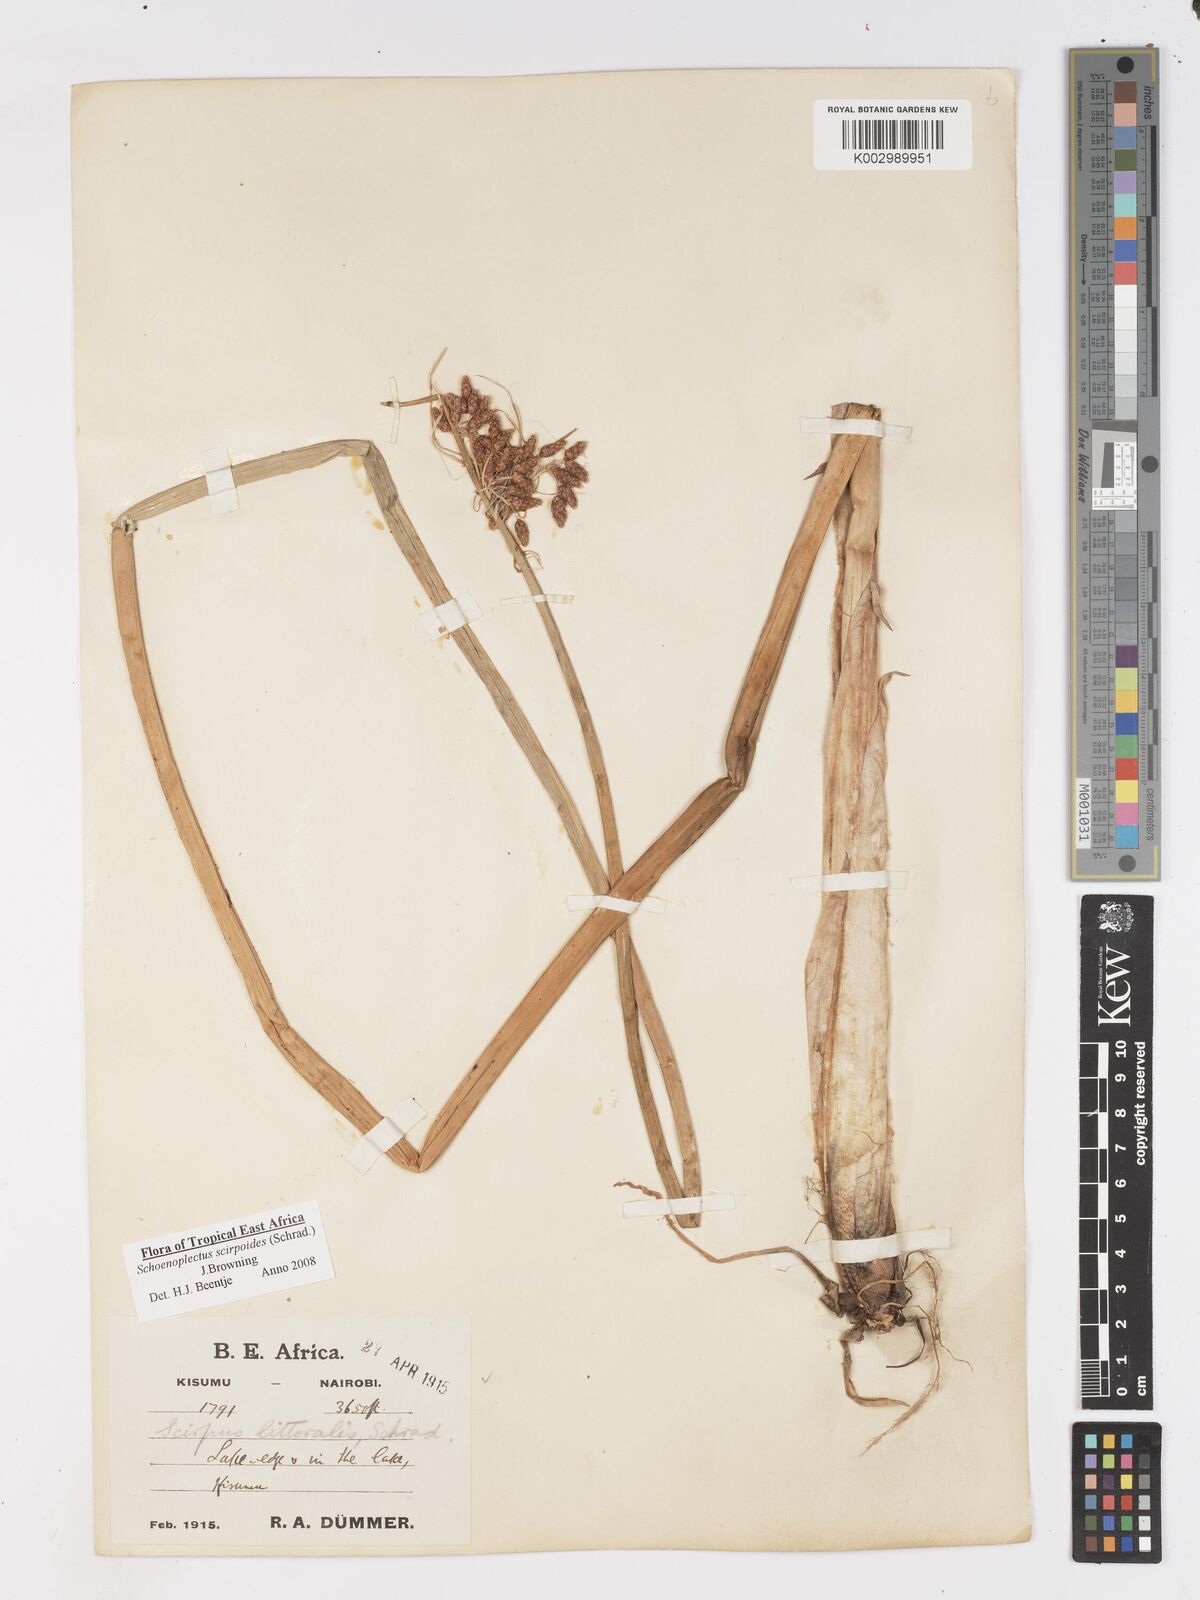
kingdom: Plantae
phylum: Tracheophyta
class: Liliopsida
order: Poales
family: Cyperaceae
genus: Schoenoplectus
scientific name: Schoenoplectus
